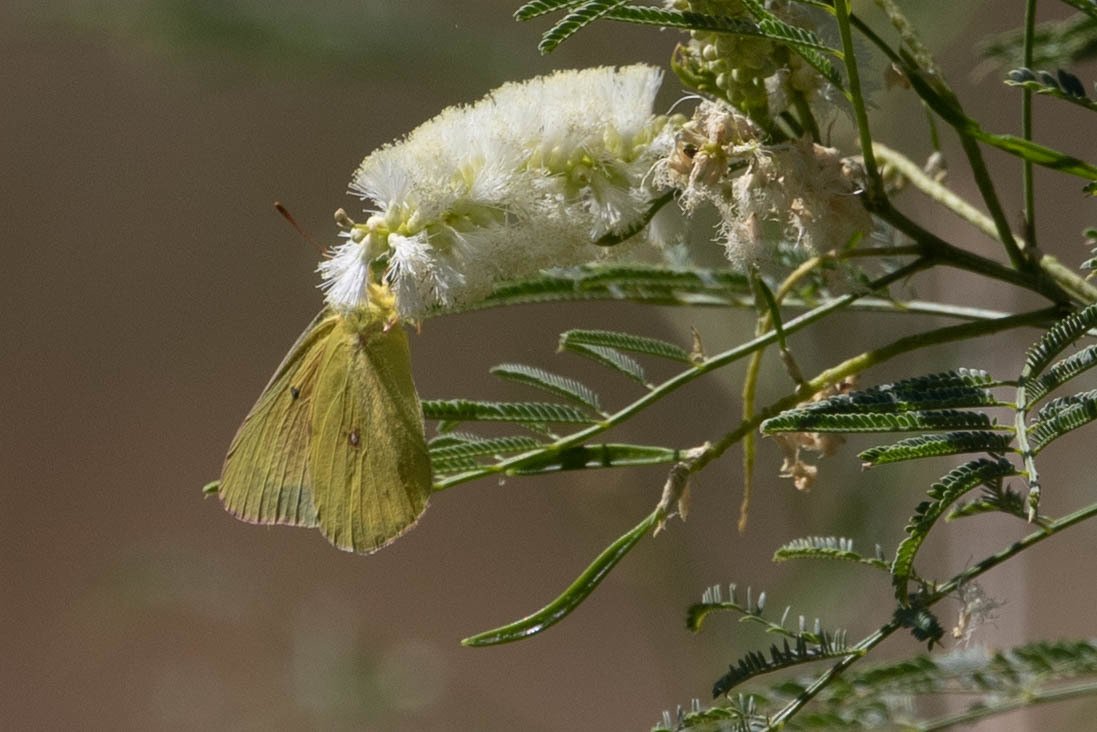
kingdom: Animalia
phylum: Arthropoda
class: Insecta
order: Lepidoptera
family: Pieridae
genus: Colias
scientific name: Colias eurytheme
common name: Orange Sulphur
